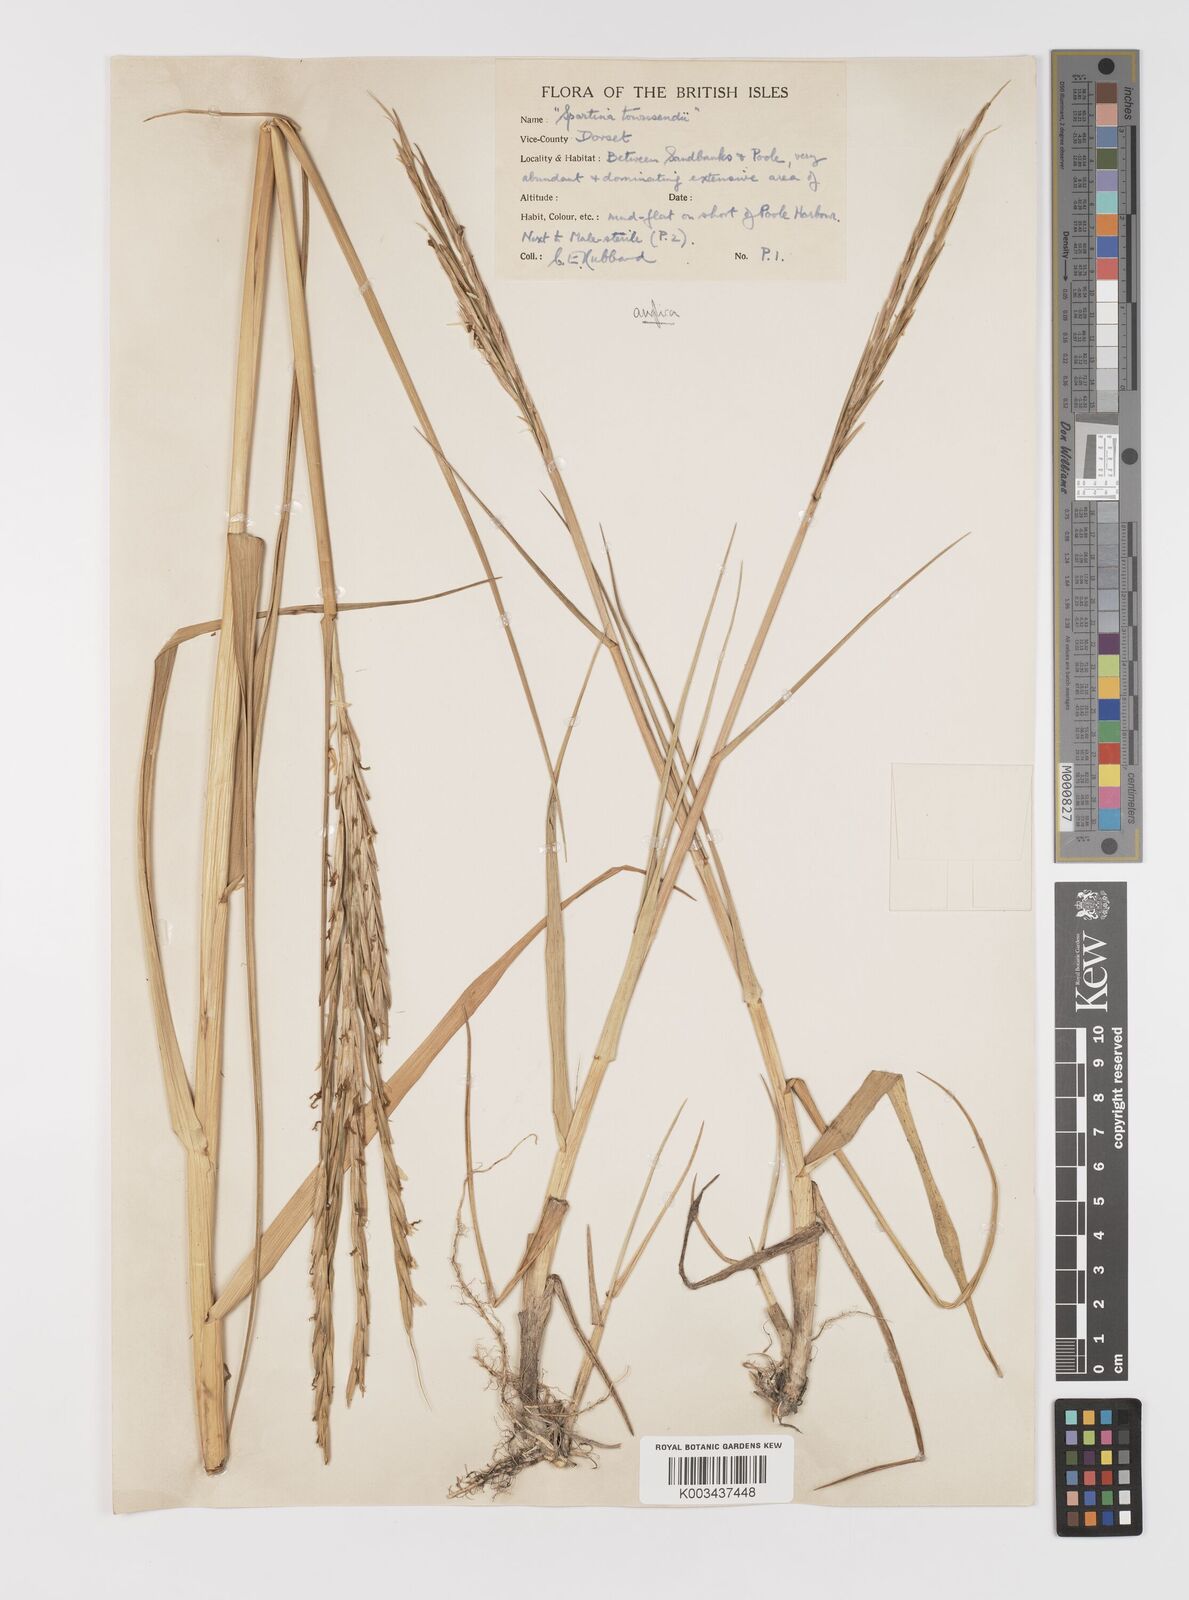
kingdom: Plantae
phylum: Tracheophyta
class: Liliopsida
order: Poales
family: Poaceae
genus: Sporobolus
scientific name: Sporobolus anglicus
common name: English cordgrass
